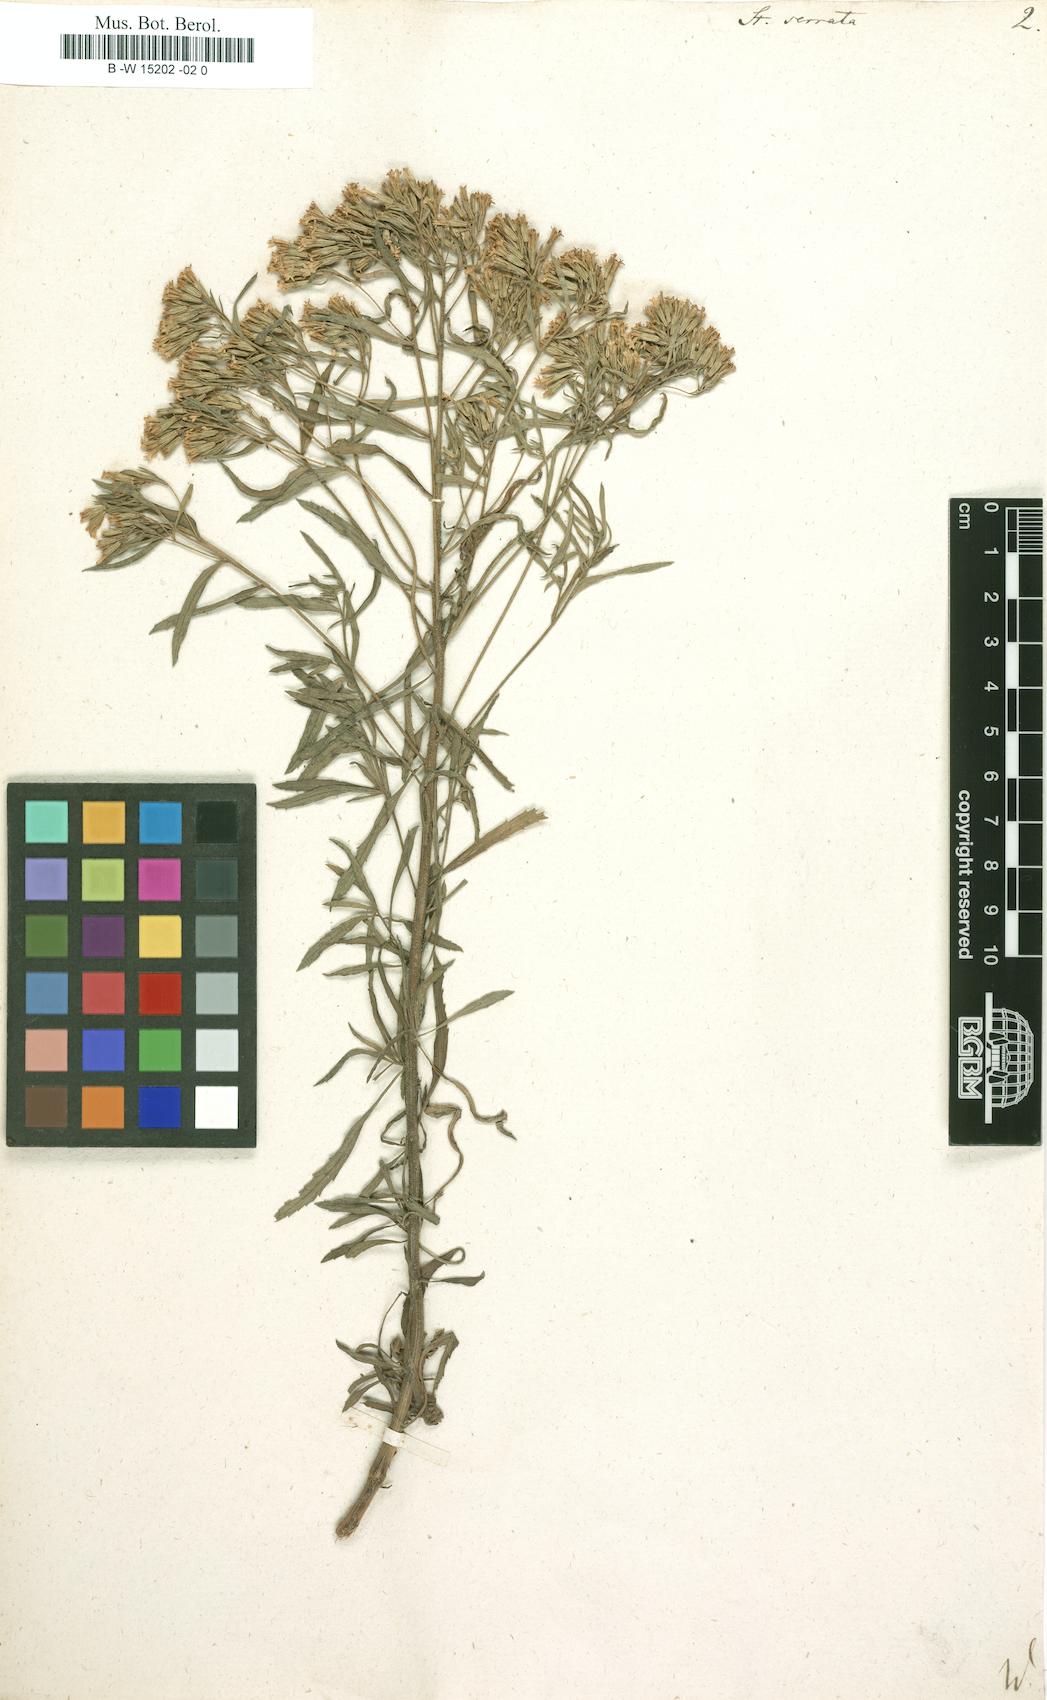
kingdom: Plantae
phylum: Tracheophyta
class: Magnoliopsida
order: Asterales
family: Asteraceae
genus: Stevia
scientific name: Stevia serrata
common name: Sawtooth candyleaf
